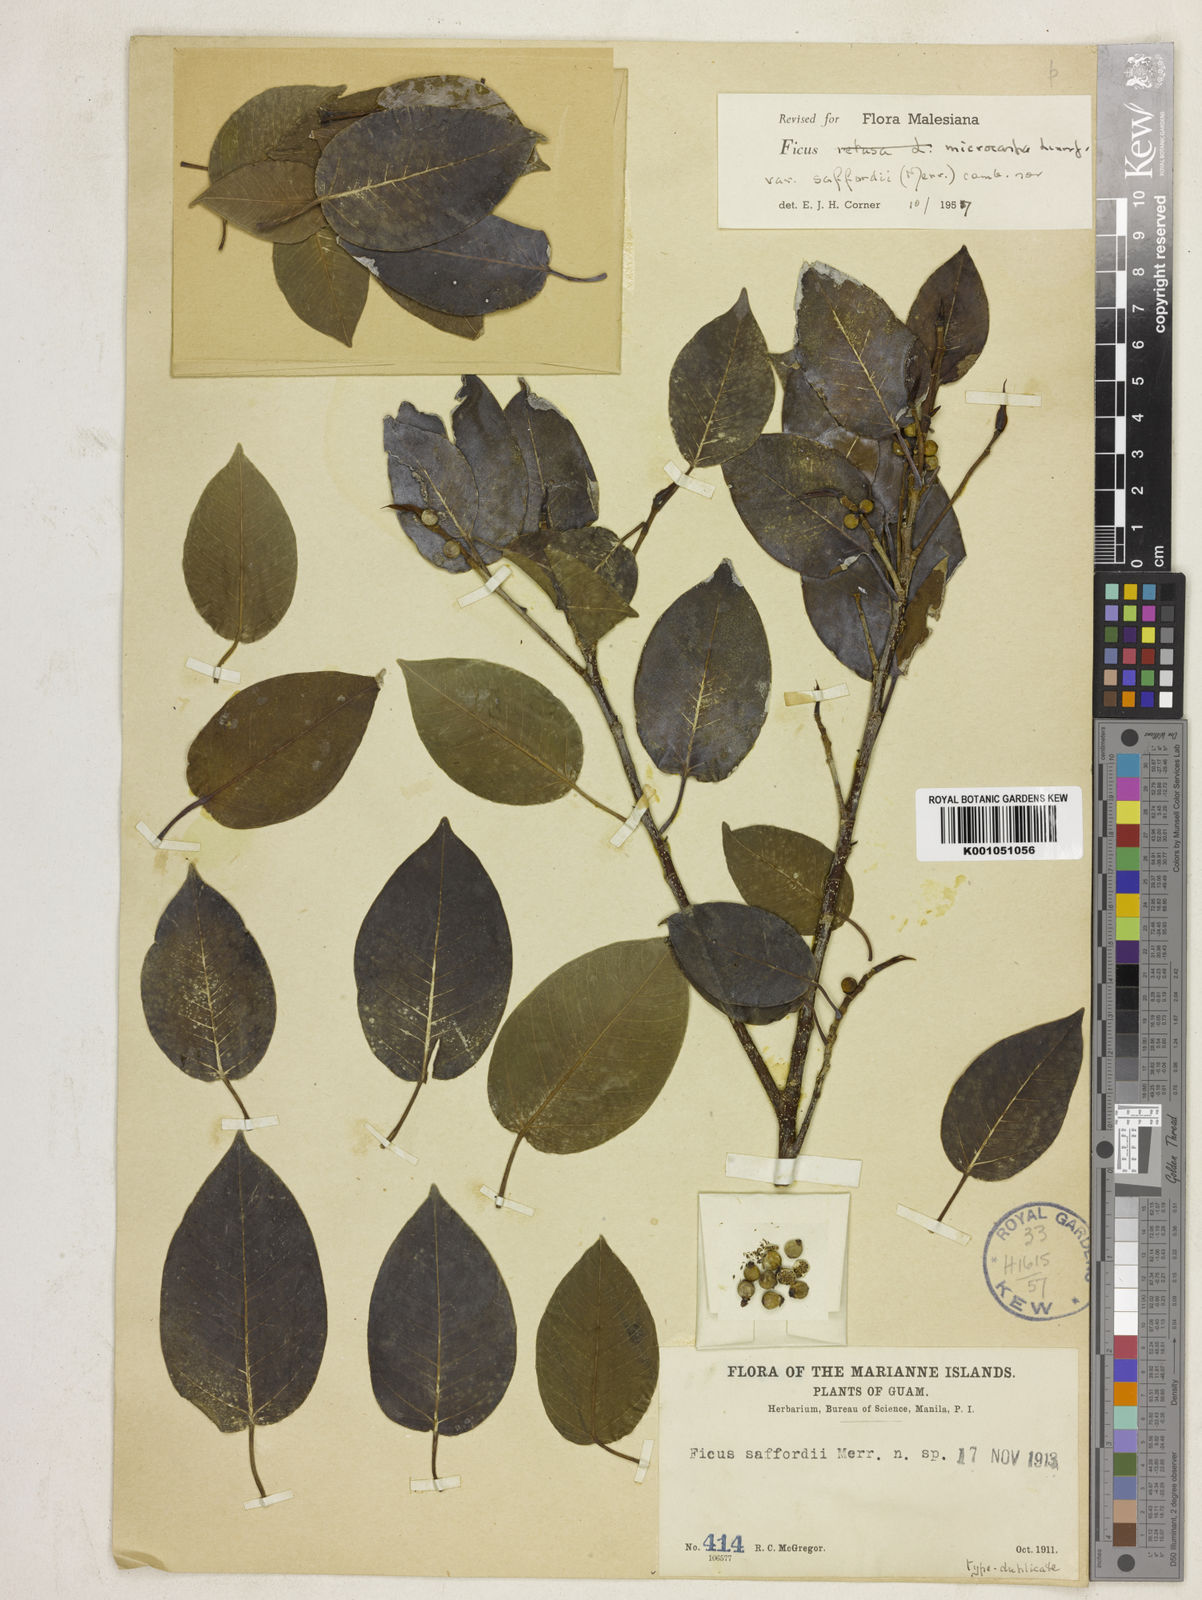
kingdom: Plantae
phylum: Tracheophyta
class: Magnoliopsida
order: Rosales
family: Moraceae
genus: Ficus
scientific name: Ficus microcarpa
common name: Chinese banyan
